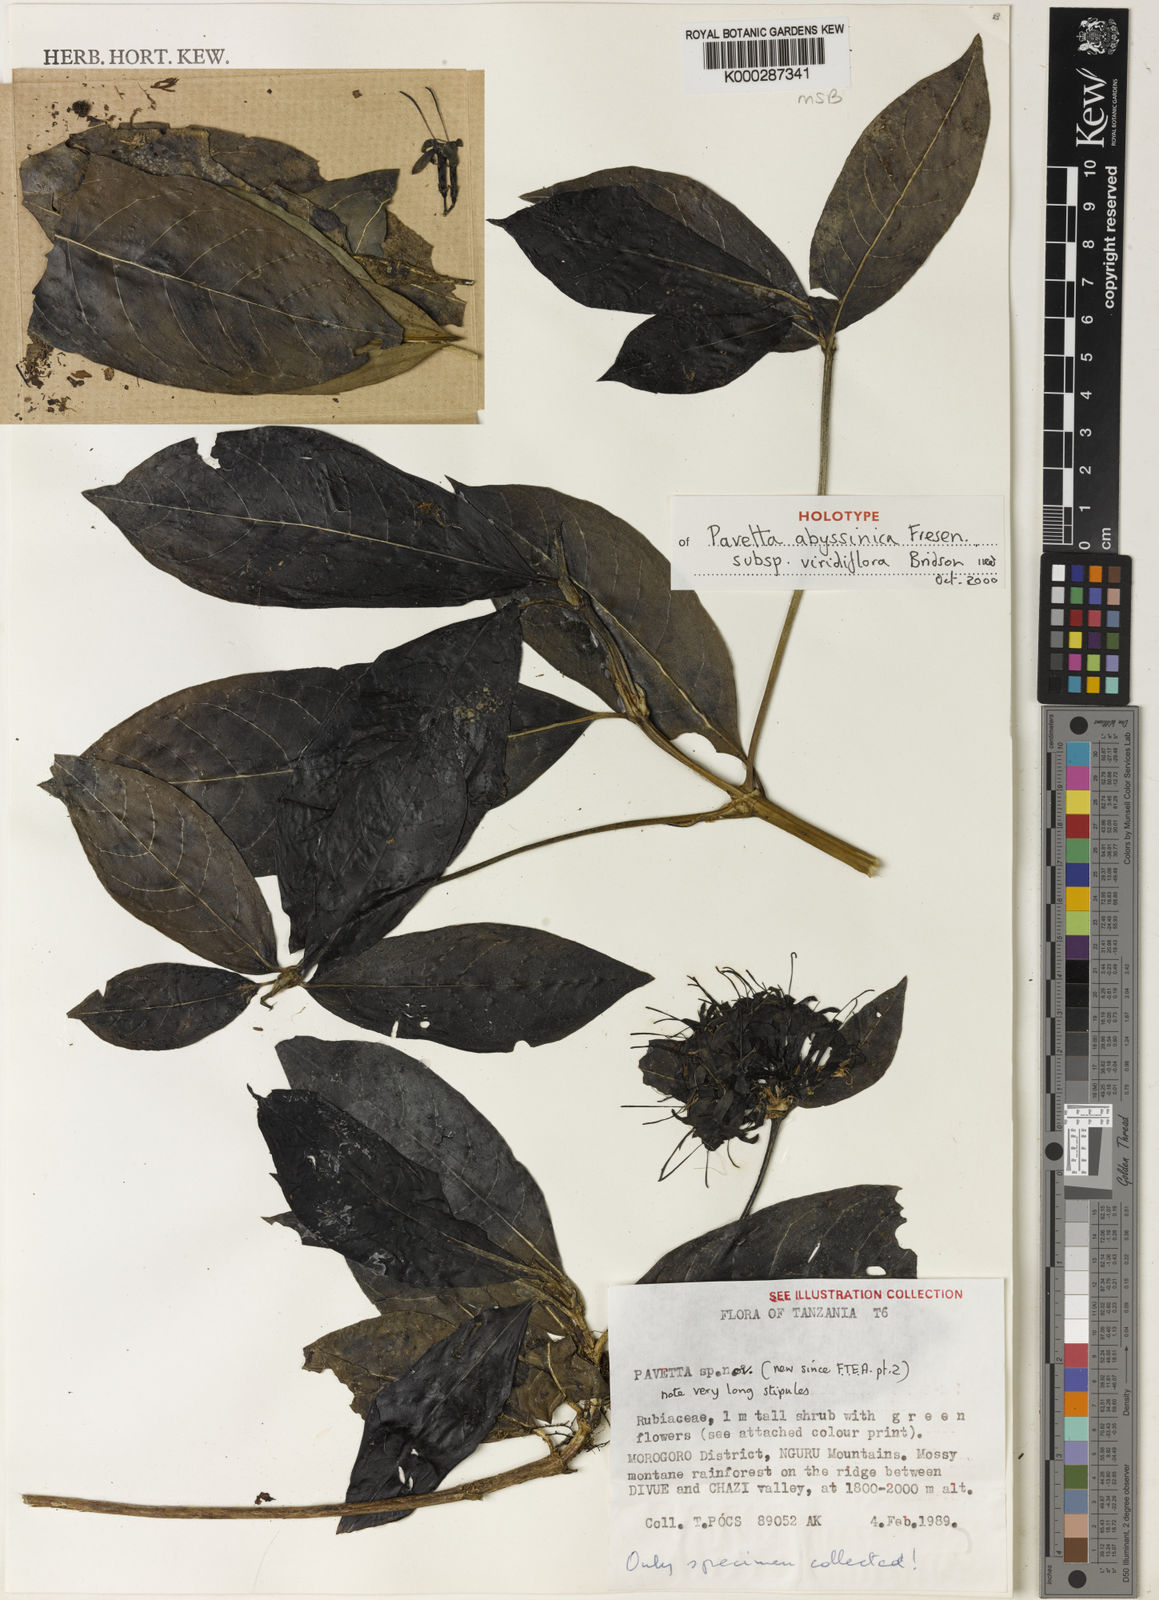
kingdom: Plantae
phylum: Tracheophyta
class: Magnoliopsida
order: Gentianales
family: Rubiaceae
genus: Pavetta
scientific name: Pavetta abyssinica
